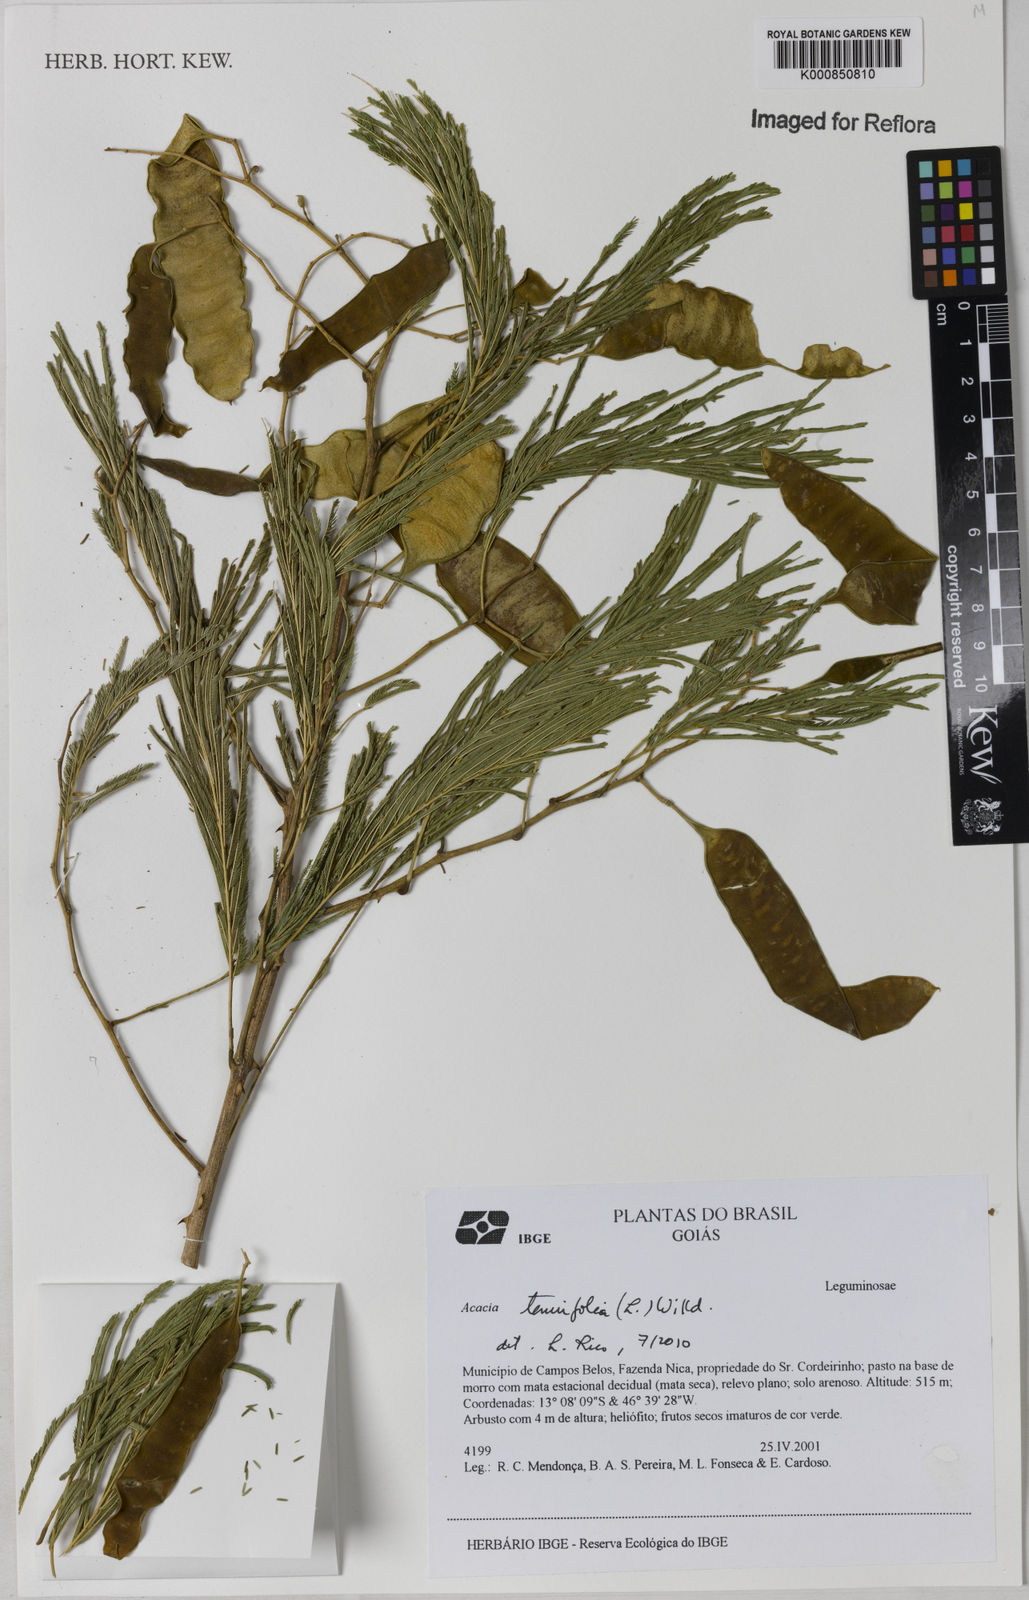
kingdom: Plantae
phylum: Tracheophyta
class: Magnoliopsida
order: Fabales
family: Fabaceae
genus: Senegalia
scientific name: Senegalia tenuifolia
